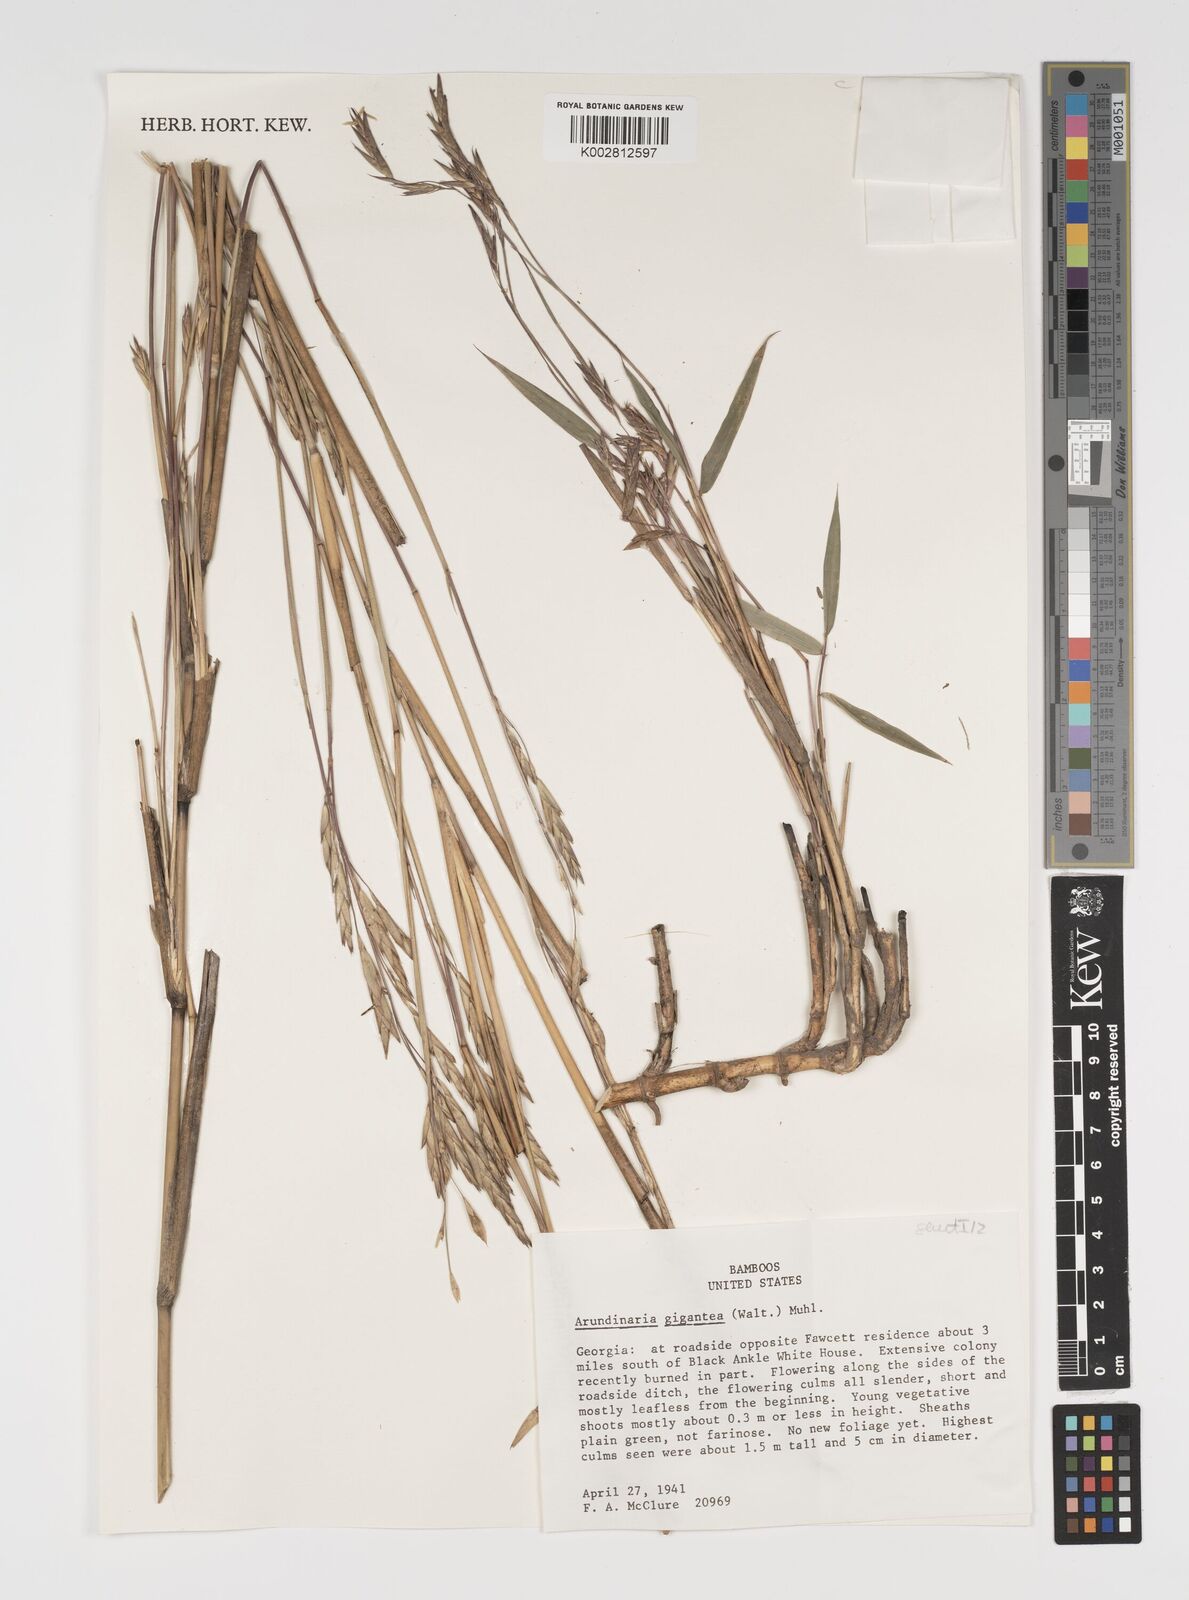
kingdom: Plantae
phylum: Tracheophyta
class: Liliopsida
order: Poales
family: Poaceae
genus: Arundinaria
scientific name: Arundinaria gigantea
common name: Giant cane
